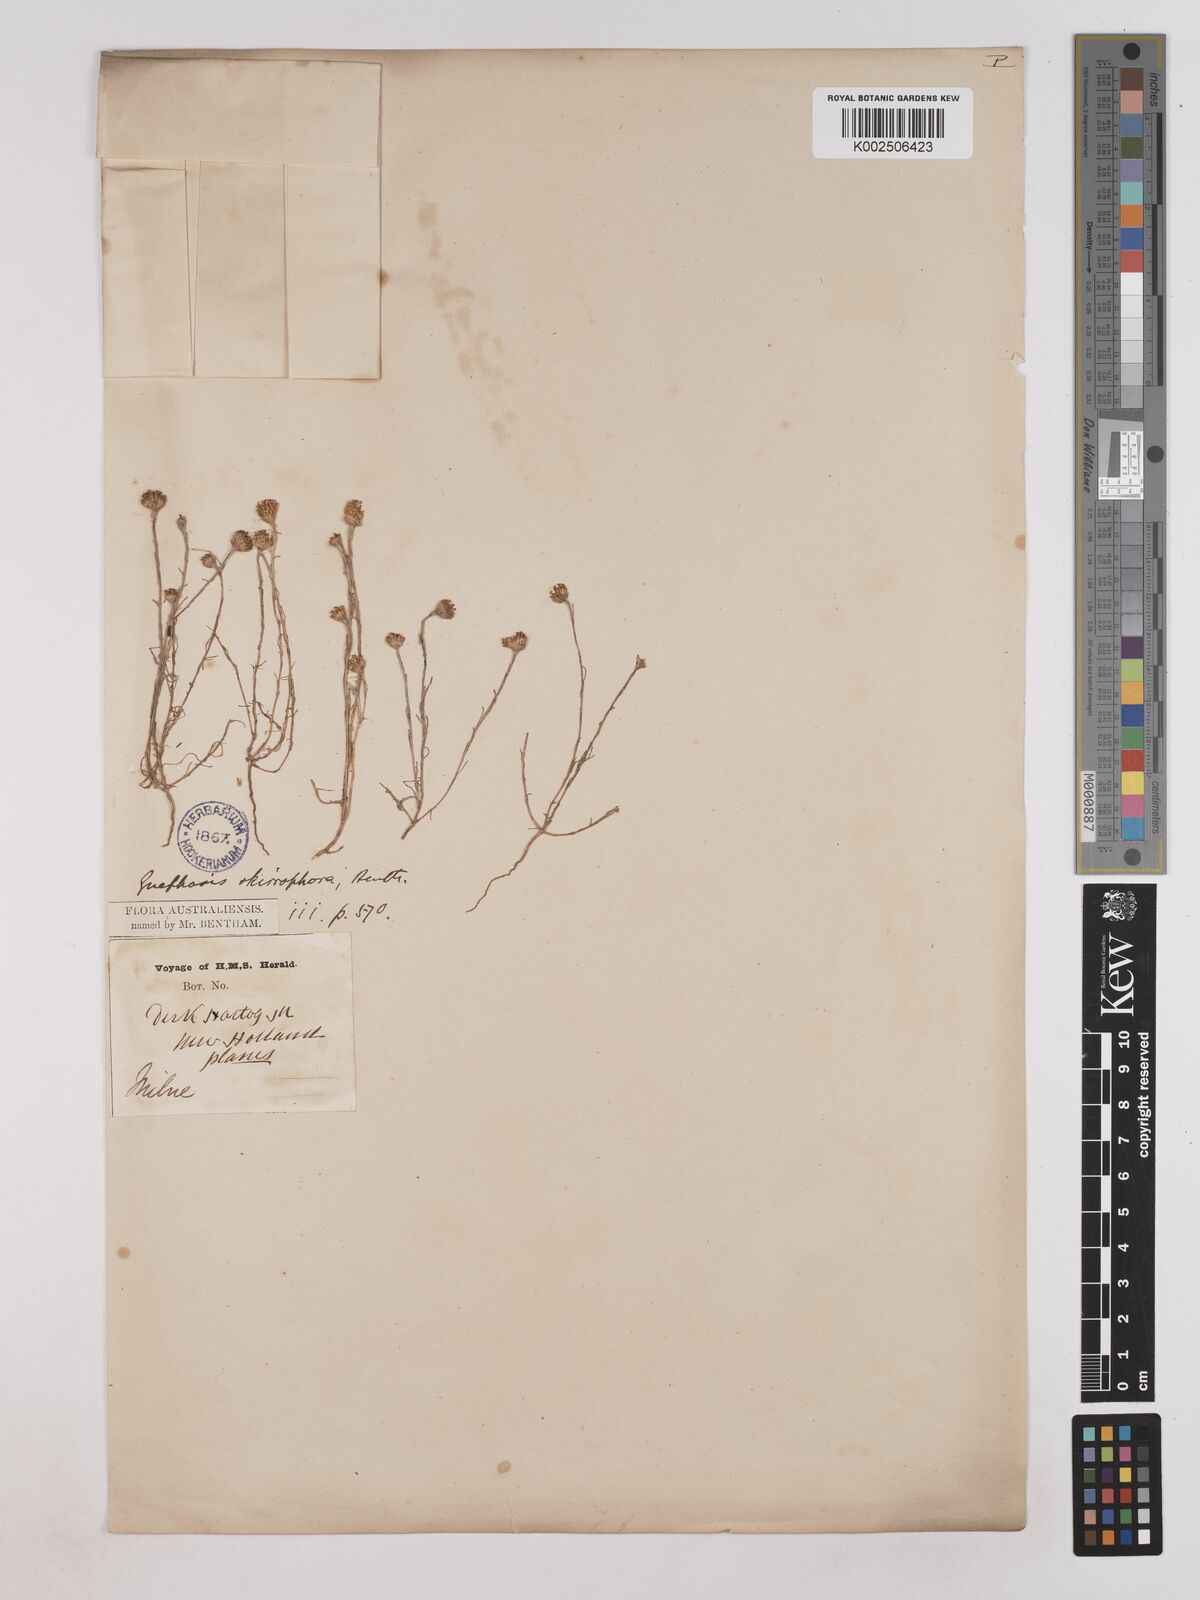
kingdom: Plantae
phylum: Tracheophyta
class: Magnoliopsida
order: Asterales
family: Asteraceae
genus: Trichanthodium
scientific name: Trichanthodium skirrophorum
